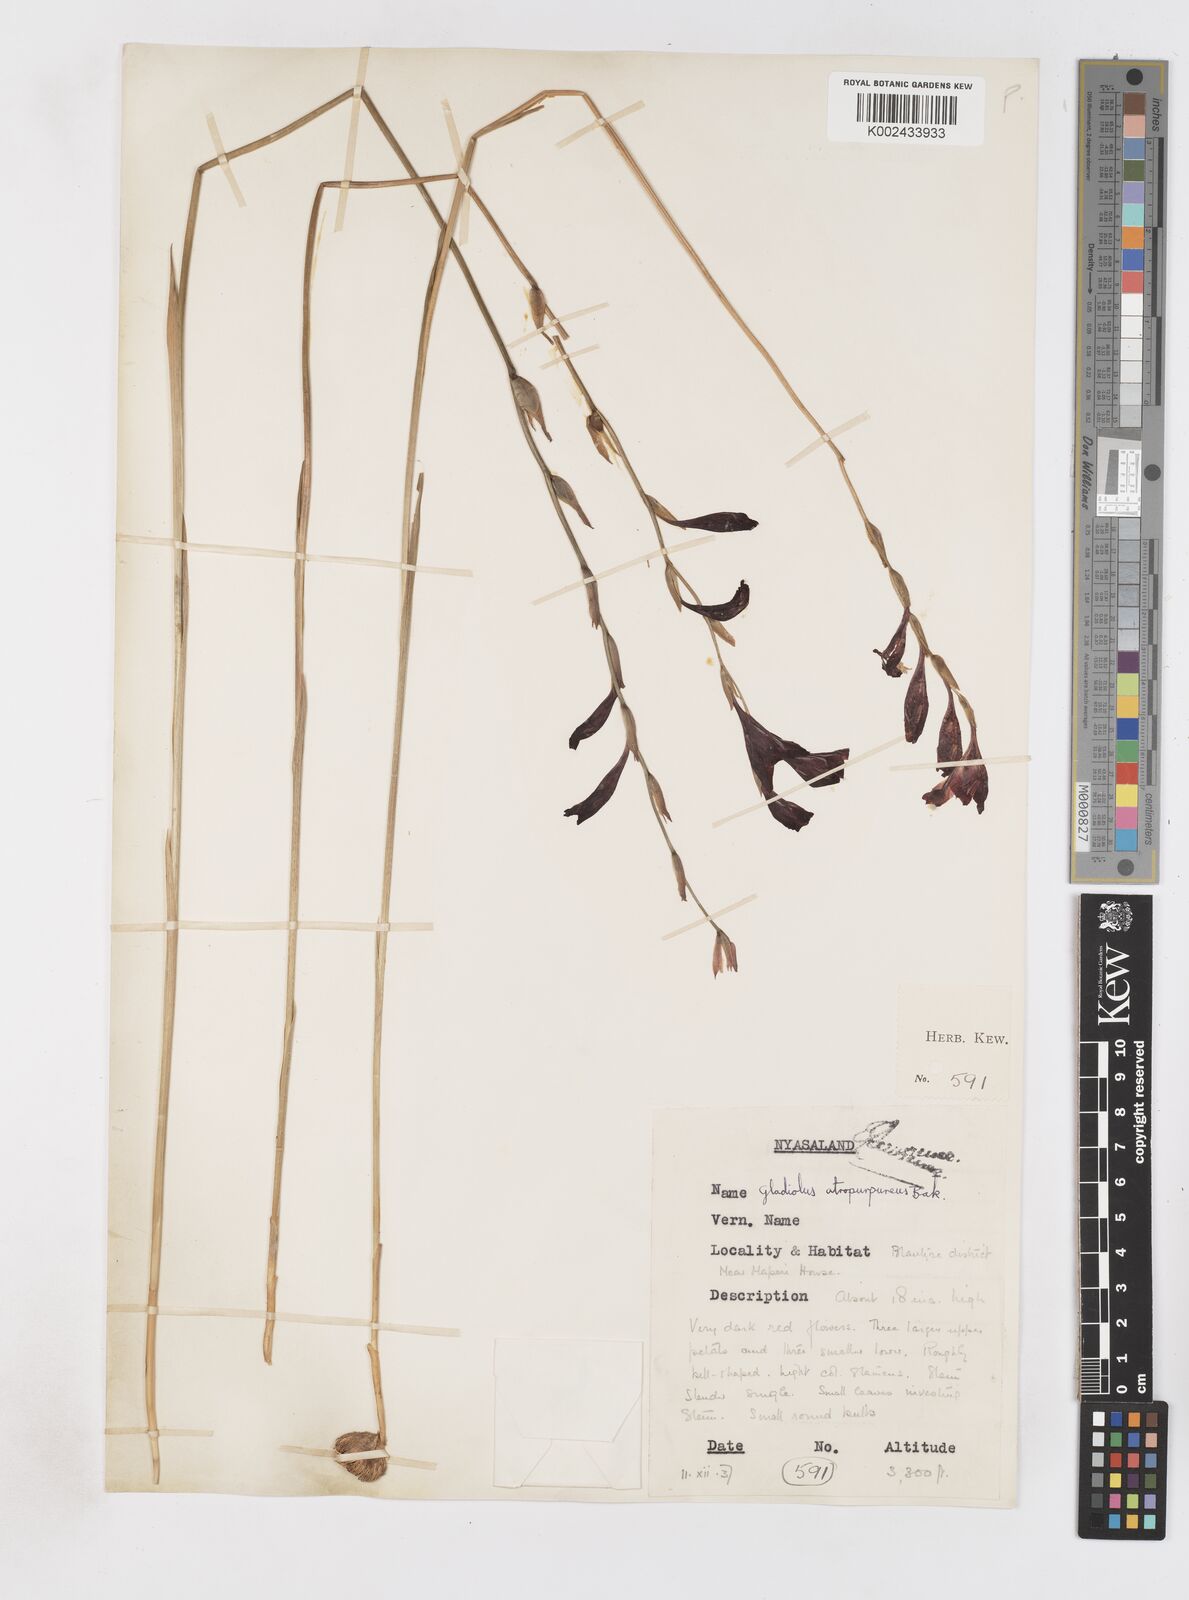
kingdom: Plantae
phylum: Tracheophyta
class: Liliopsida
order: Asparagales
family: Iridaceae
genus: Gladiolus
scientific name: Gladiolus atropurpureus
